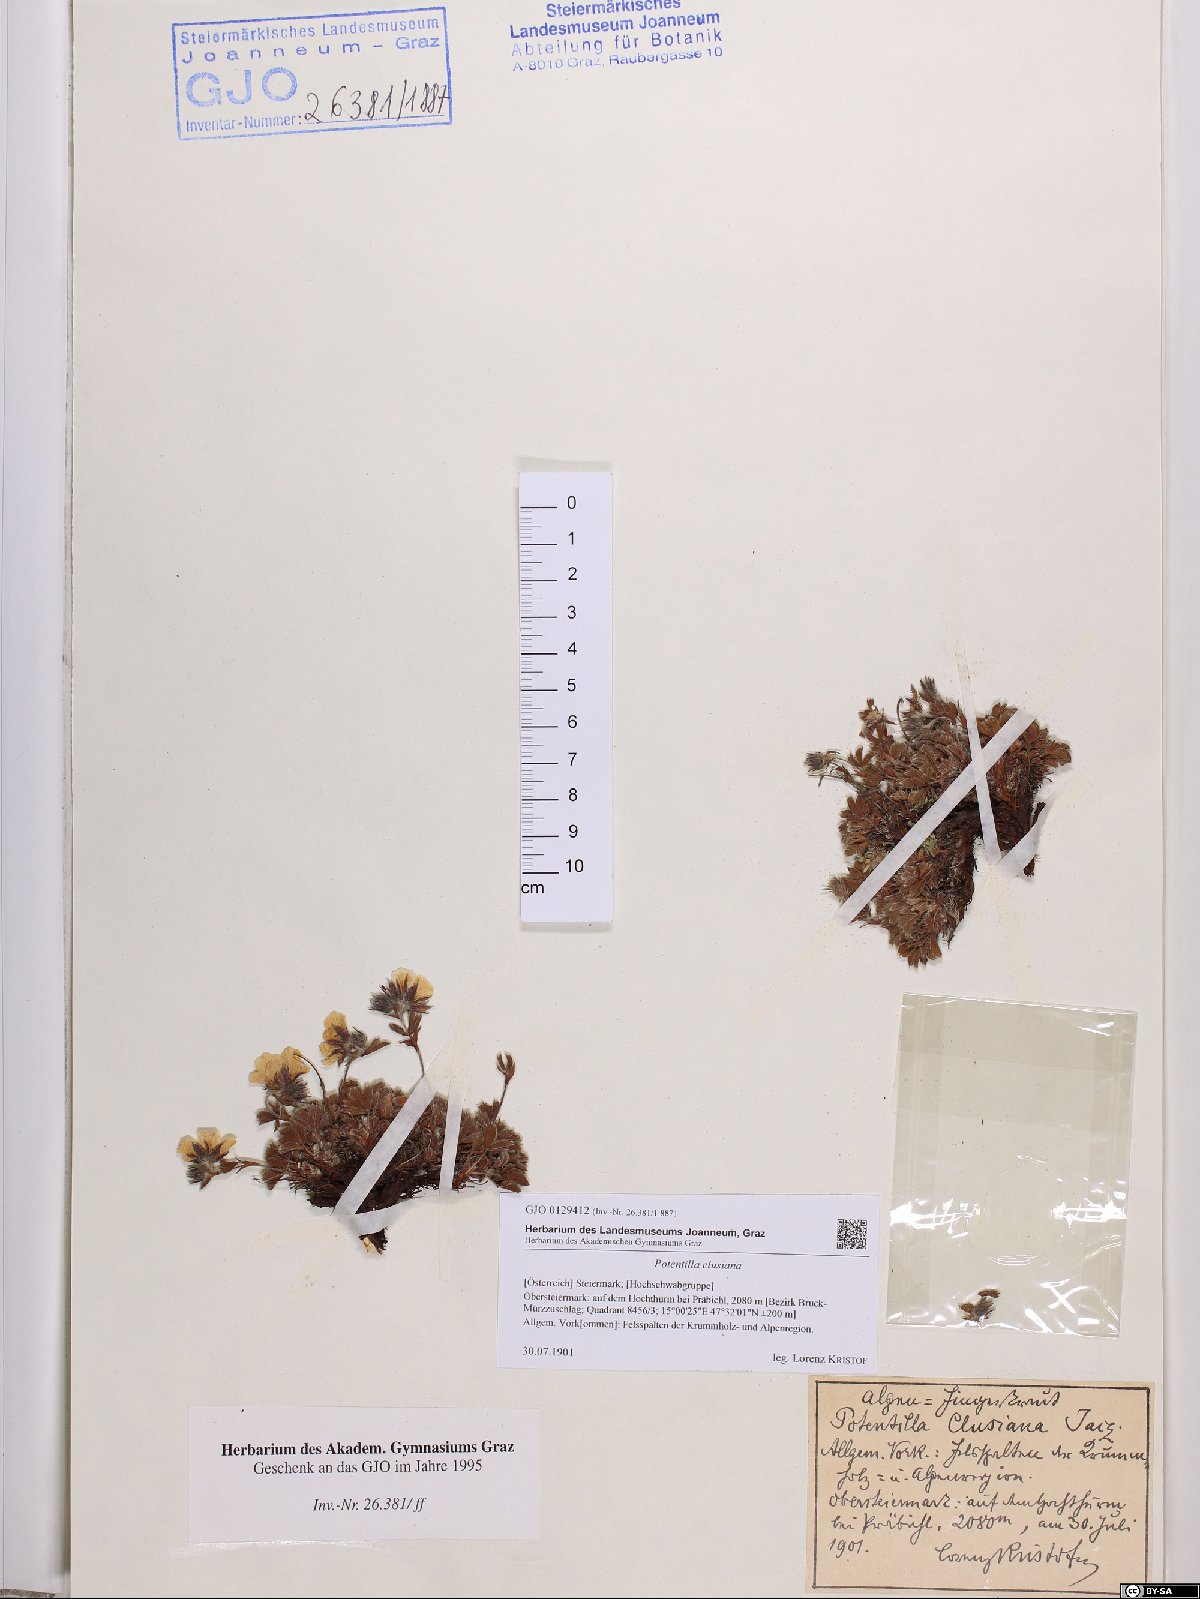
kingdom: Plantae
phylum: Tracheophyta
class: Magnoliopsida
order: Rosales
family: Rosaceae
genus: Potentilla
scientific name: Potentilla clusiana
